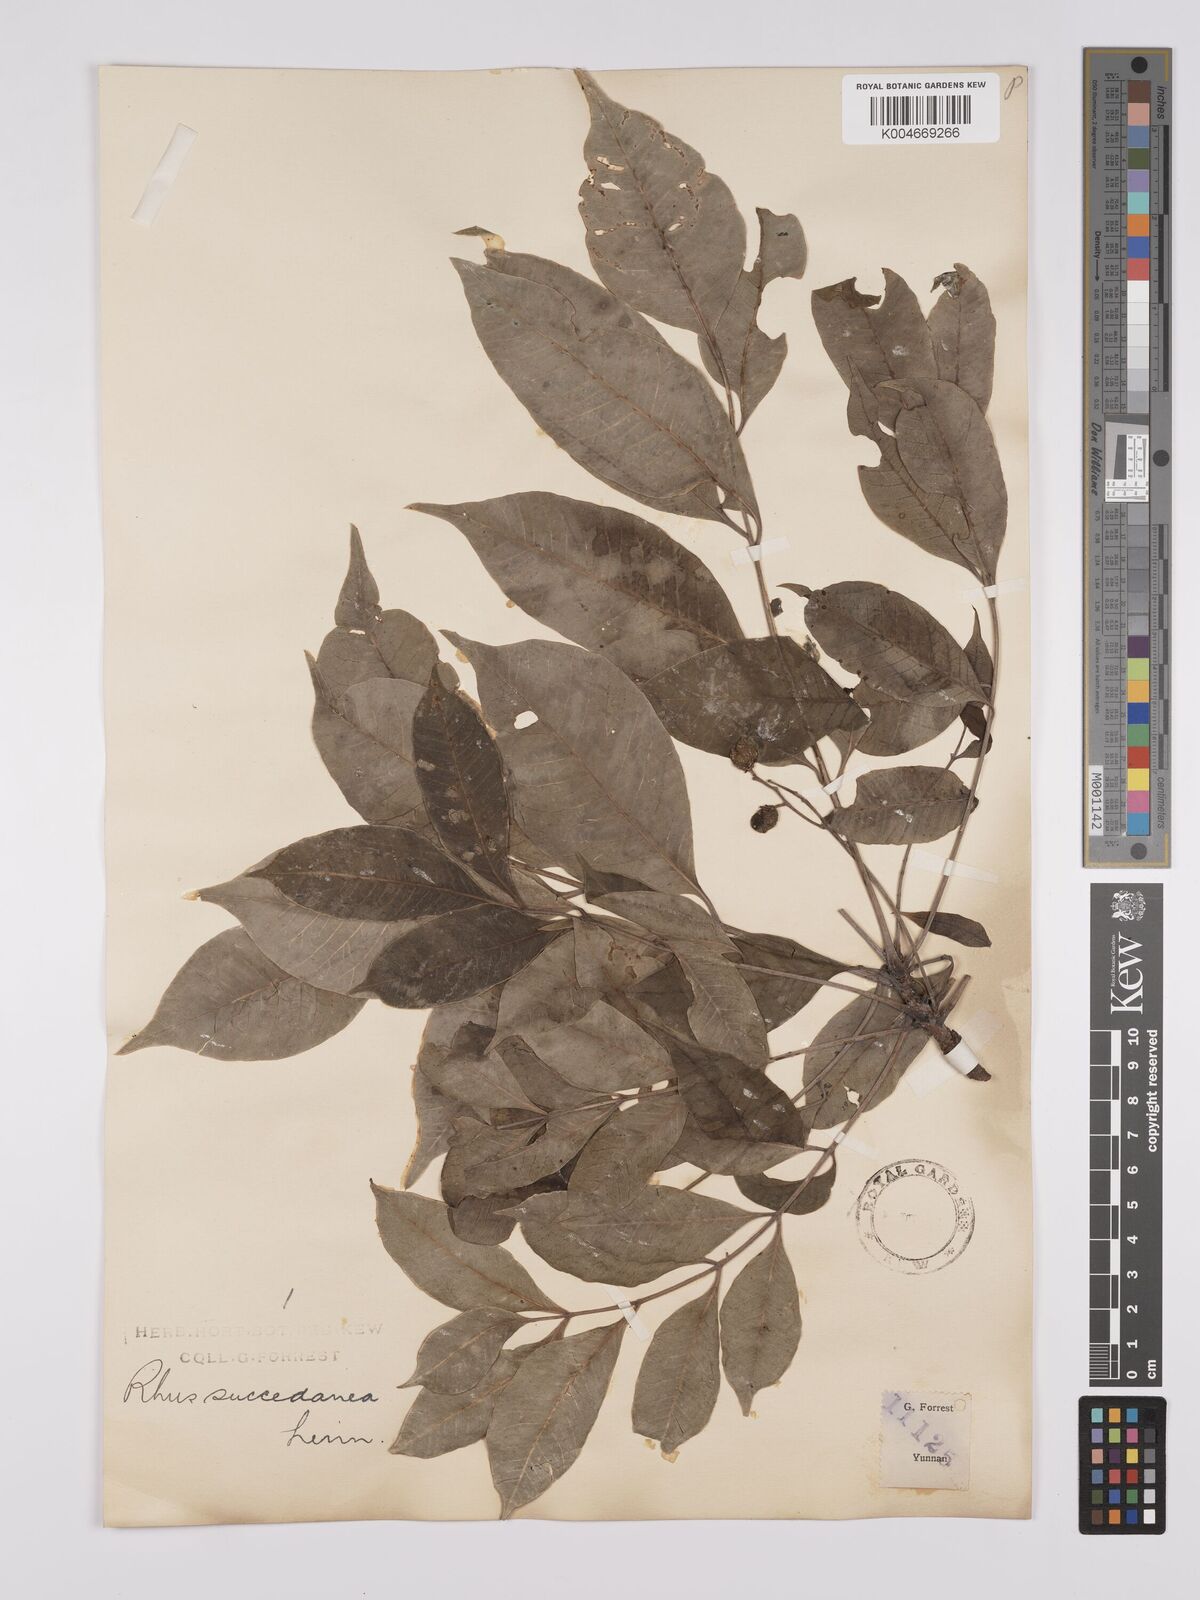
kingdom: Plantae
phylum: Tracheophyta
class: Magnoliopsida
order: Sapindales
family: Anacardiaceae
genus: Toxicodendron
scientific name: Toxicodendron succedaneum
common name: Wax tree
